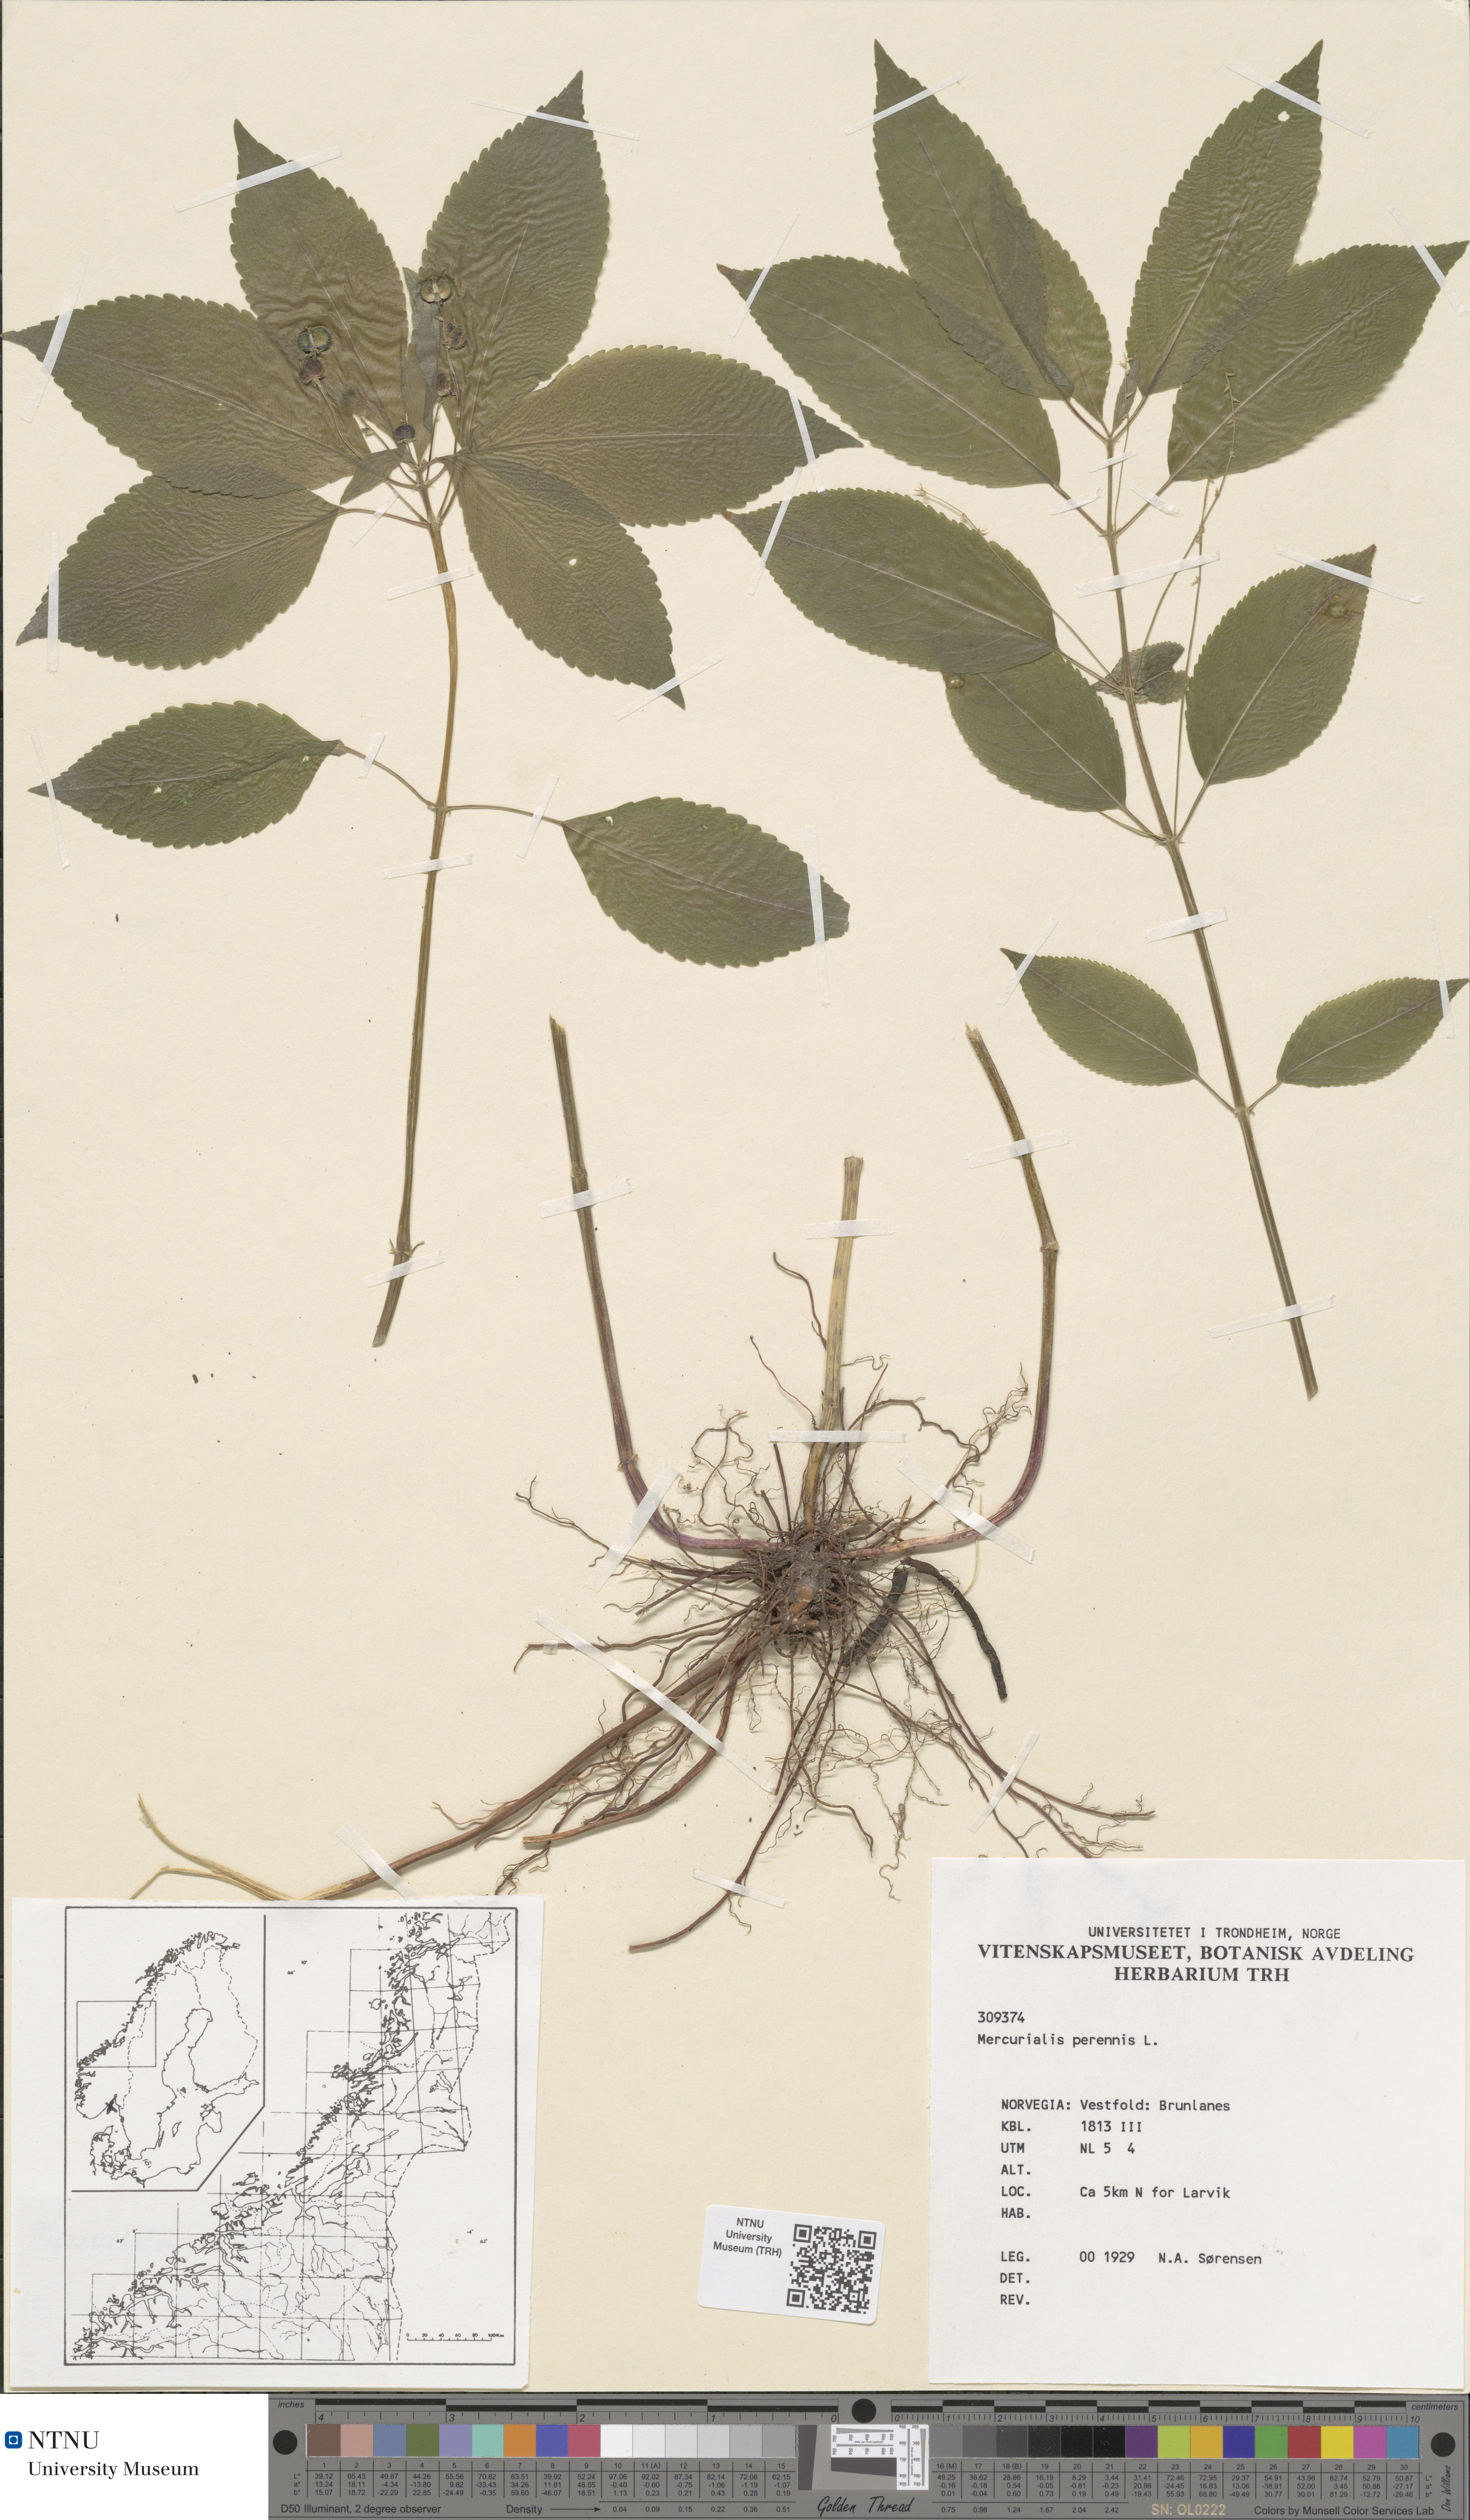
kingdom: Plantae
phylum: Tracheophyta
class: Magnoliopsida
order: Malpighiales
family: Euphorbiaceae
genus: Mercurialis
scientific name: Mercurialis perennis
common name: Dog mercury
